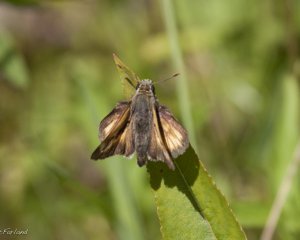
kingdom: Animalia
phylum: Arthropoda
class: Insecta
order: Lepidoptera
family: Hesperiidae
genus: Lon
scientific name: Lon hobomok
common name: Hobomok Skipper
